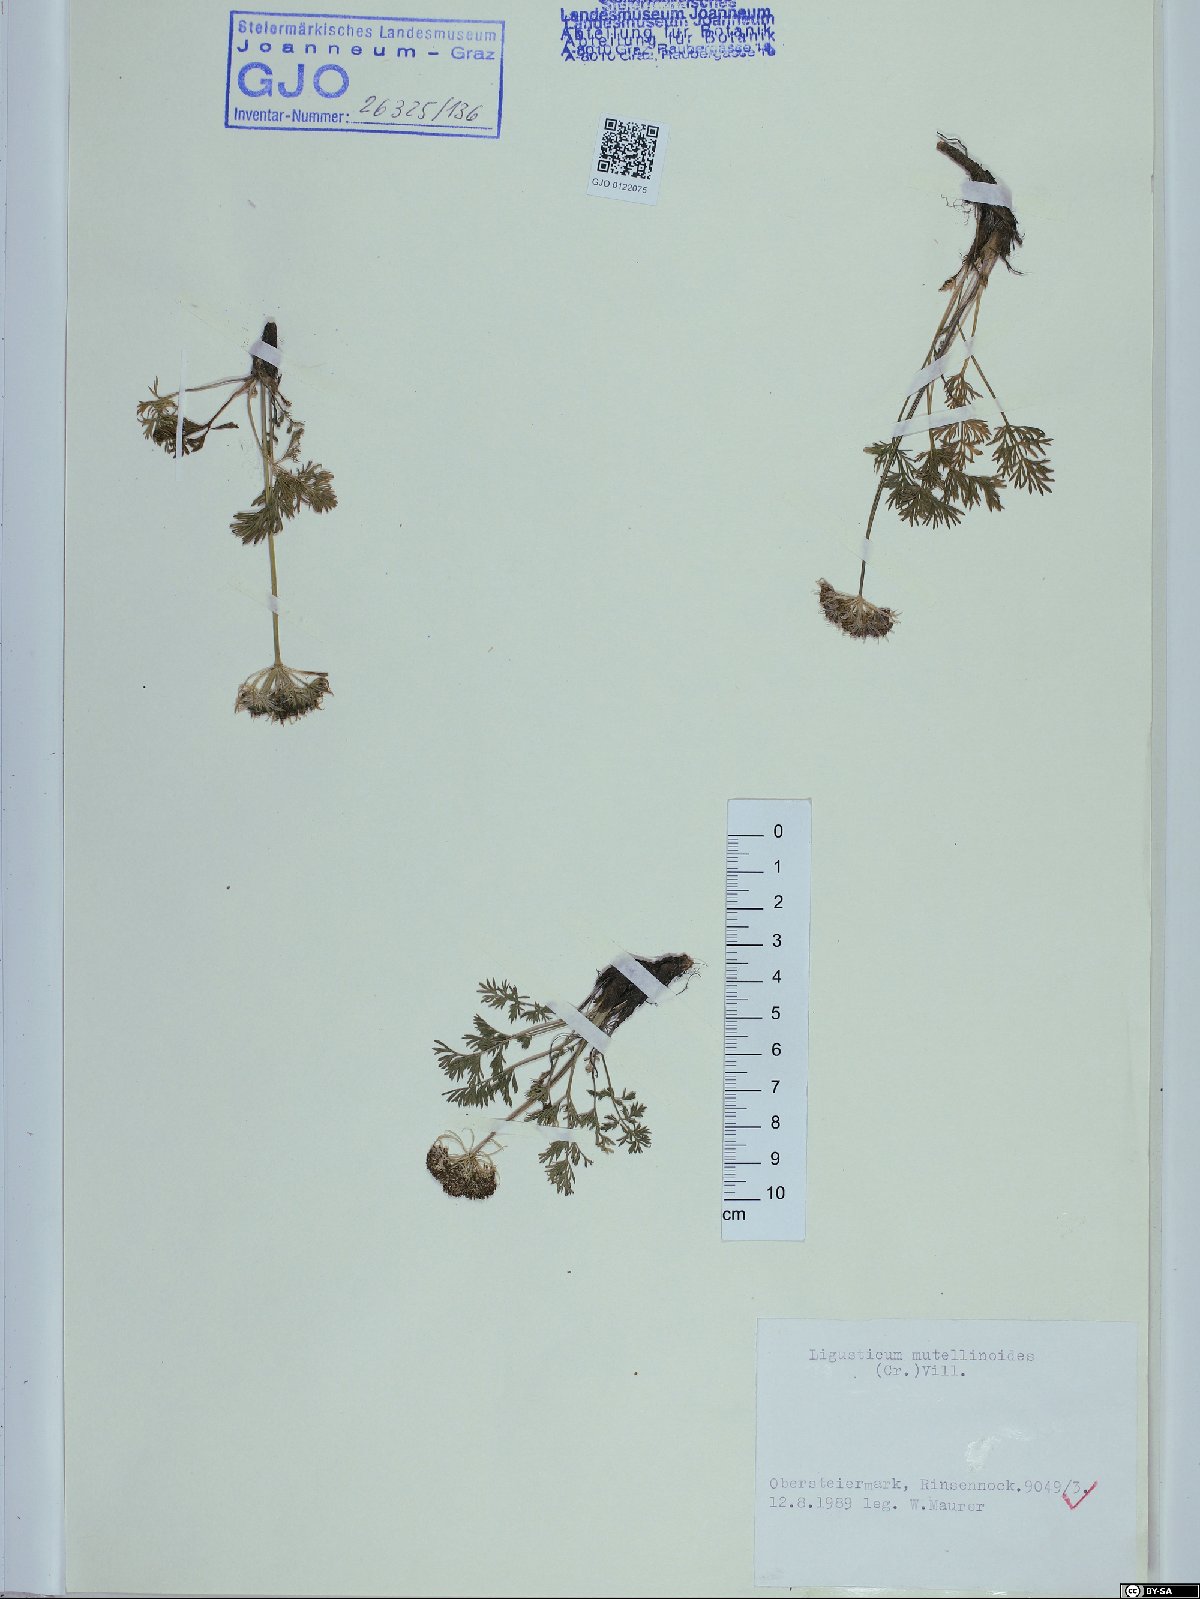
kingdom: Plantae
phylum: Tracheophyta
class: Magnoliopsida
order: Apiales
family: Apiaceae
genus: Pachypleurum
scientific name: Pachypleurum mutellinoides
